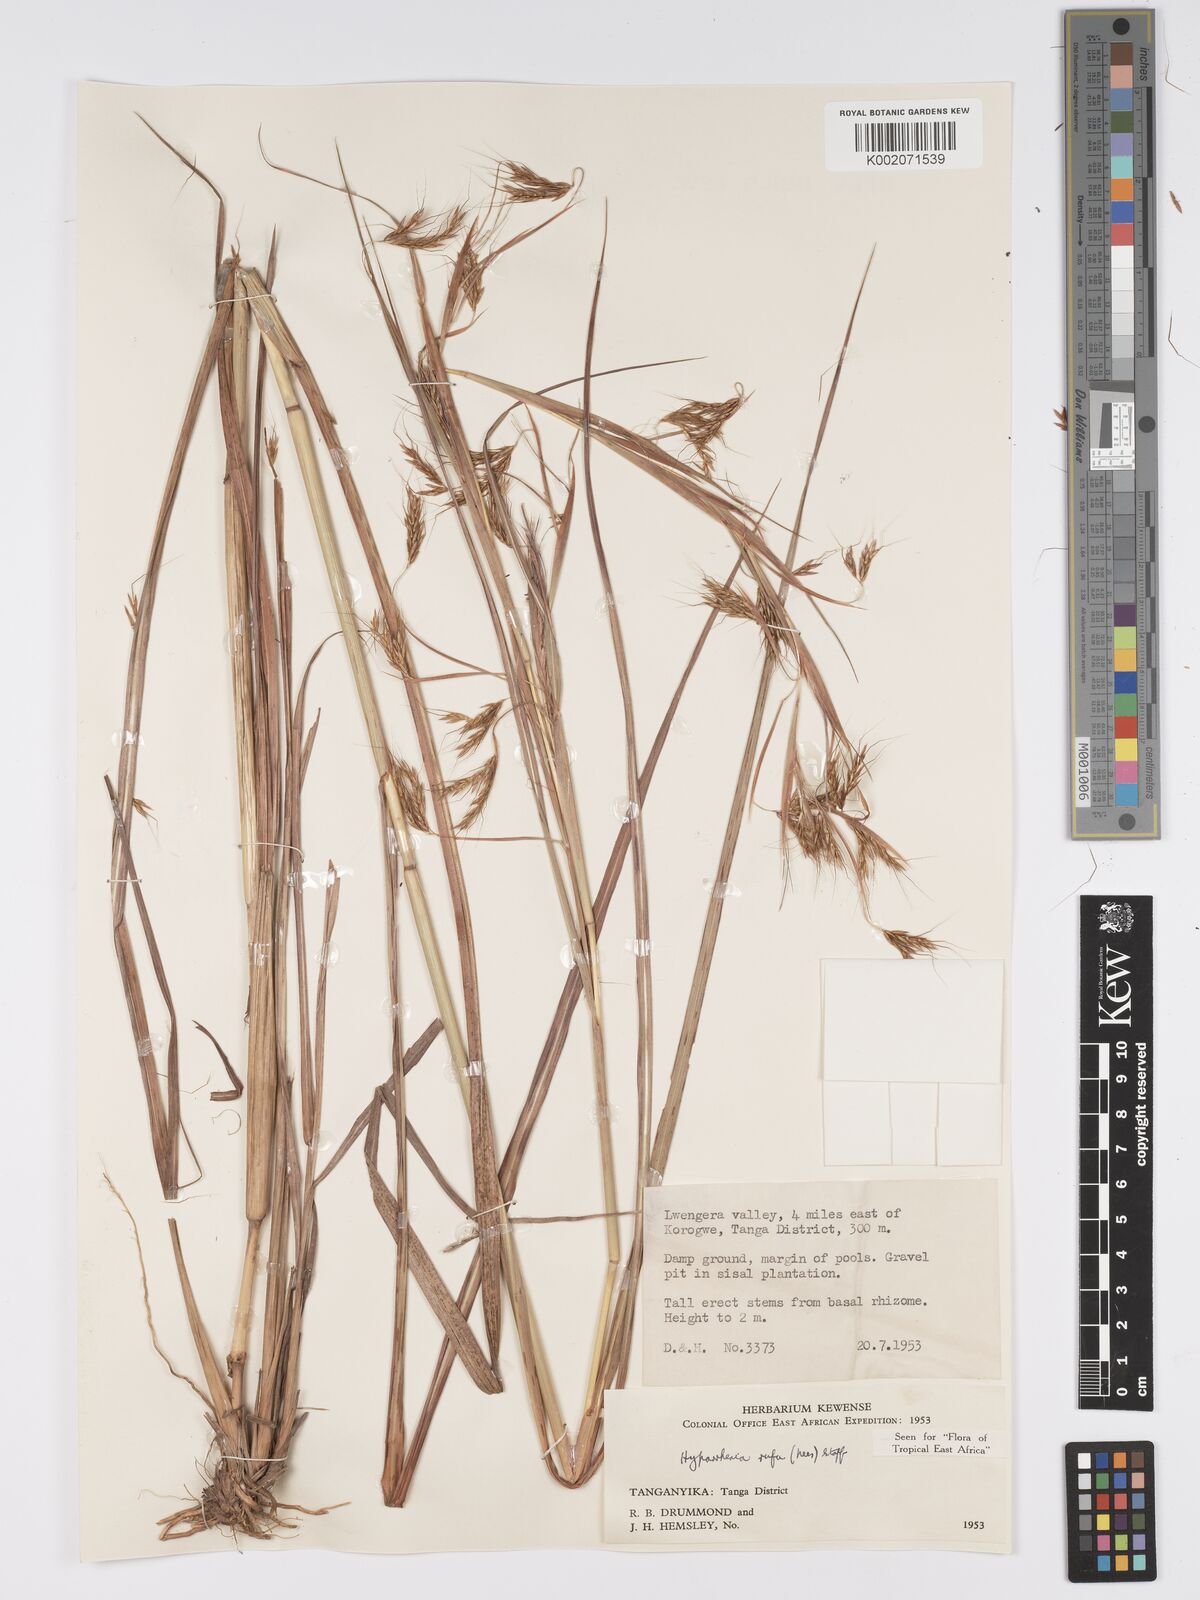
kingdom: Plantae
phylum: Tracheophyta
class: Liliopsida
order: Poales
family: Poaceae
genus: Hyparrhenia
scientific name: Hyparrhenia rufa
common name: Jaraguagrass
